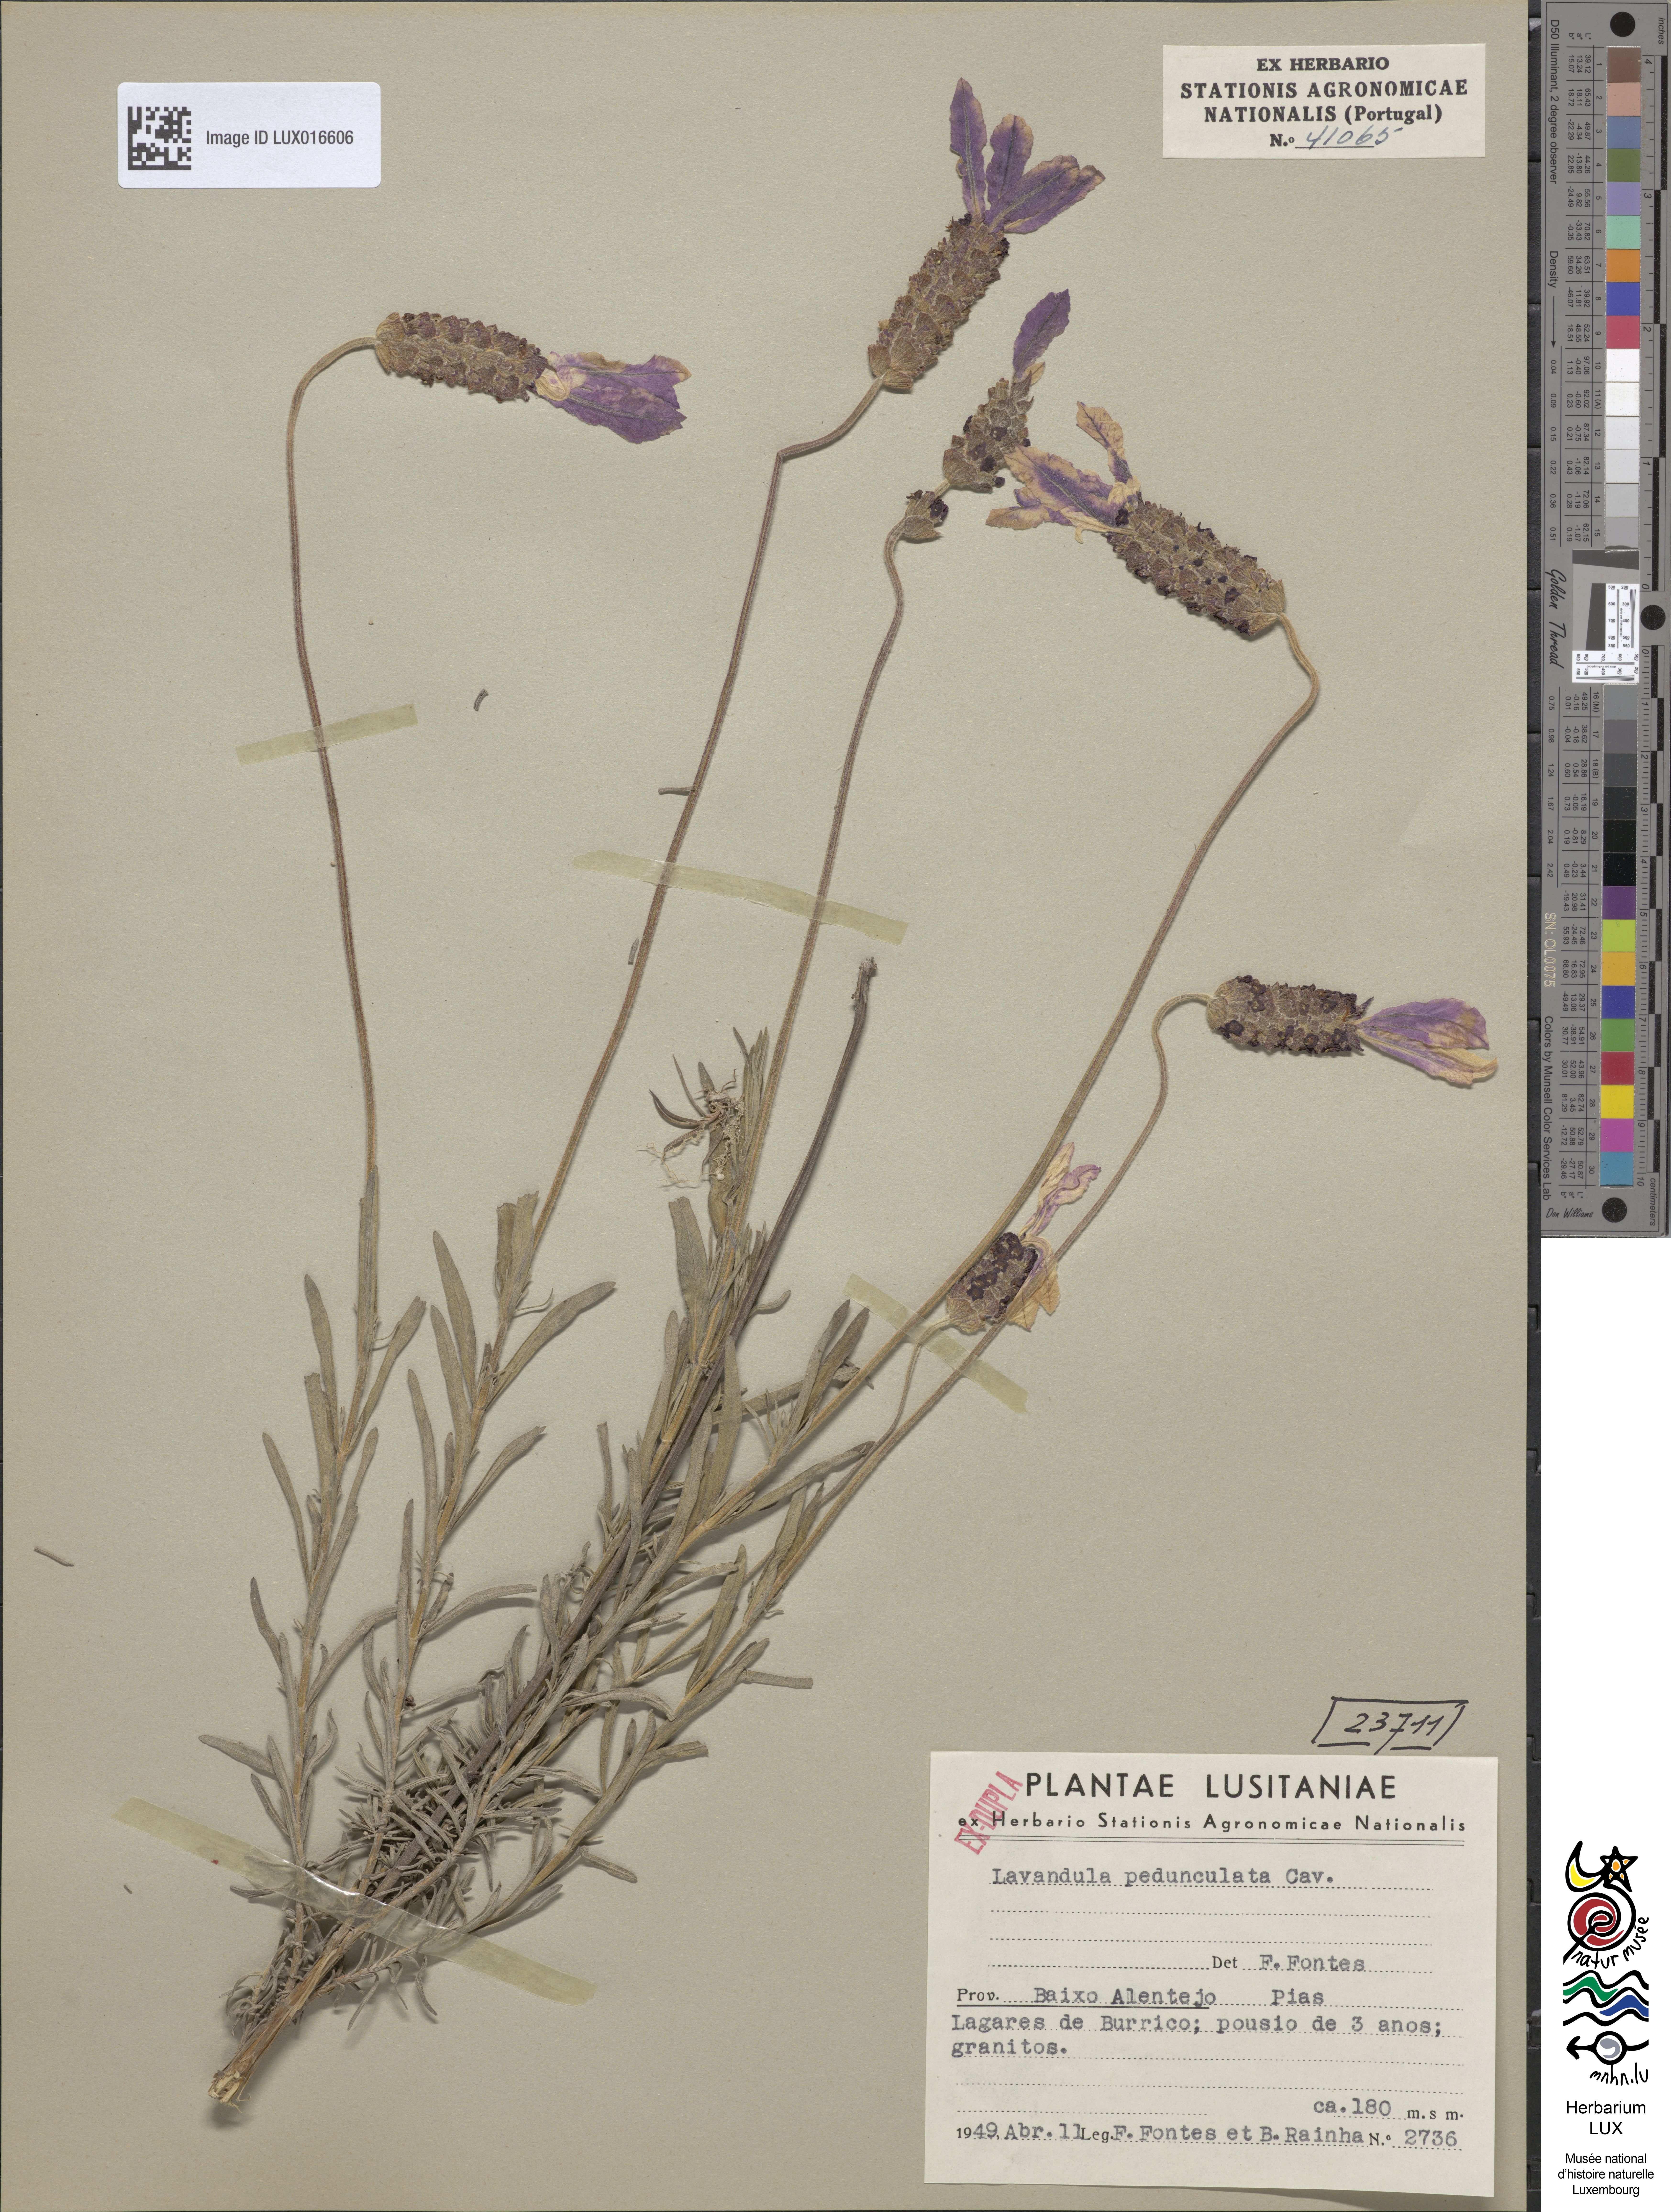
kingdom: Plantae
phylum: Tracheophyta
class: Magnoliopsida
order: Lamiales
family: Lamiaceae
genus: Lavandula
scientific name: Lavandula pedunculata
